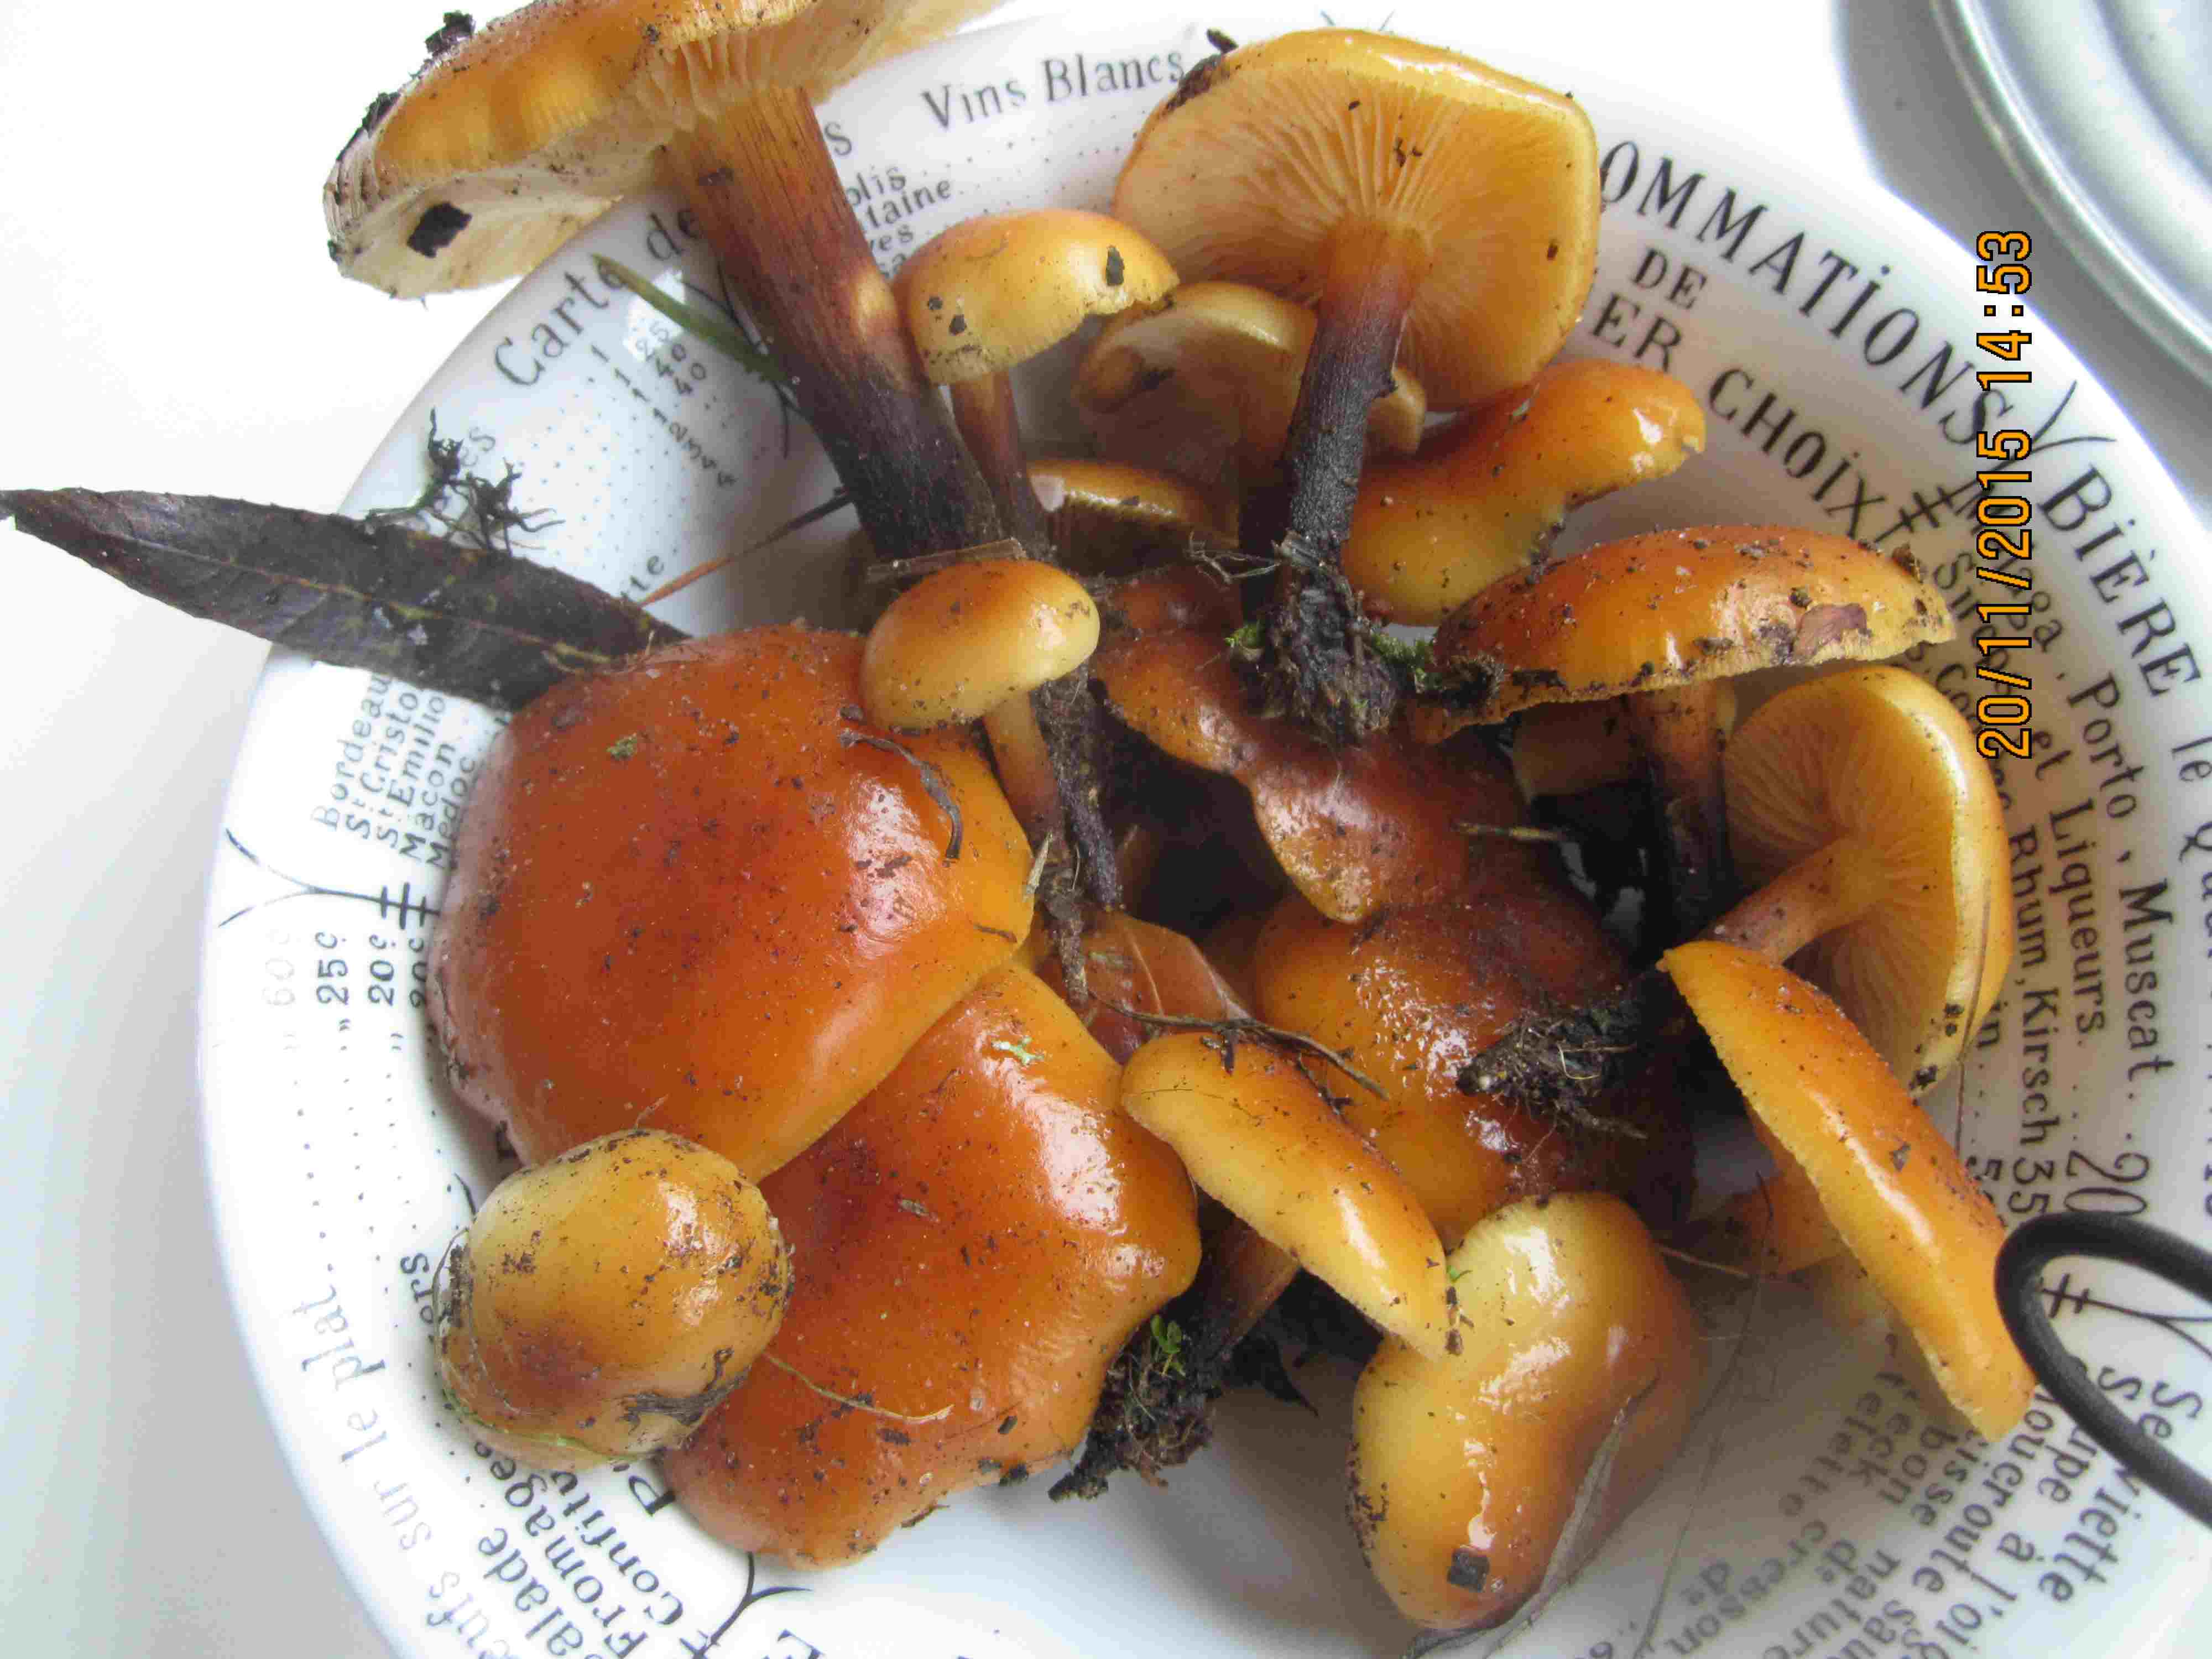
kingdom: Fungi
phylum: Basidiomycota
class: Agaricomycetes
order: Agaricales
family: Physalacriaceae
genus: Flammulina
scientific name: Flammulina elastica
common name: pile-fløjlsfod
